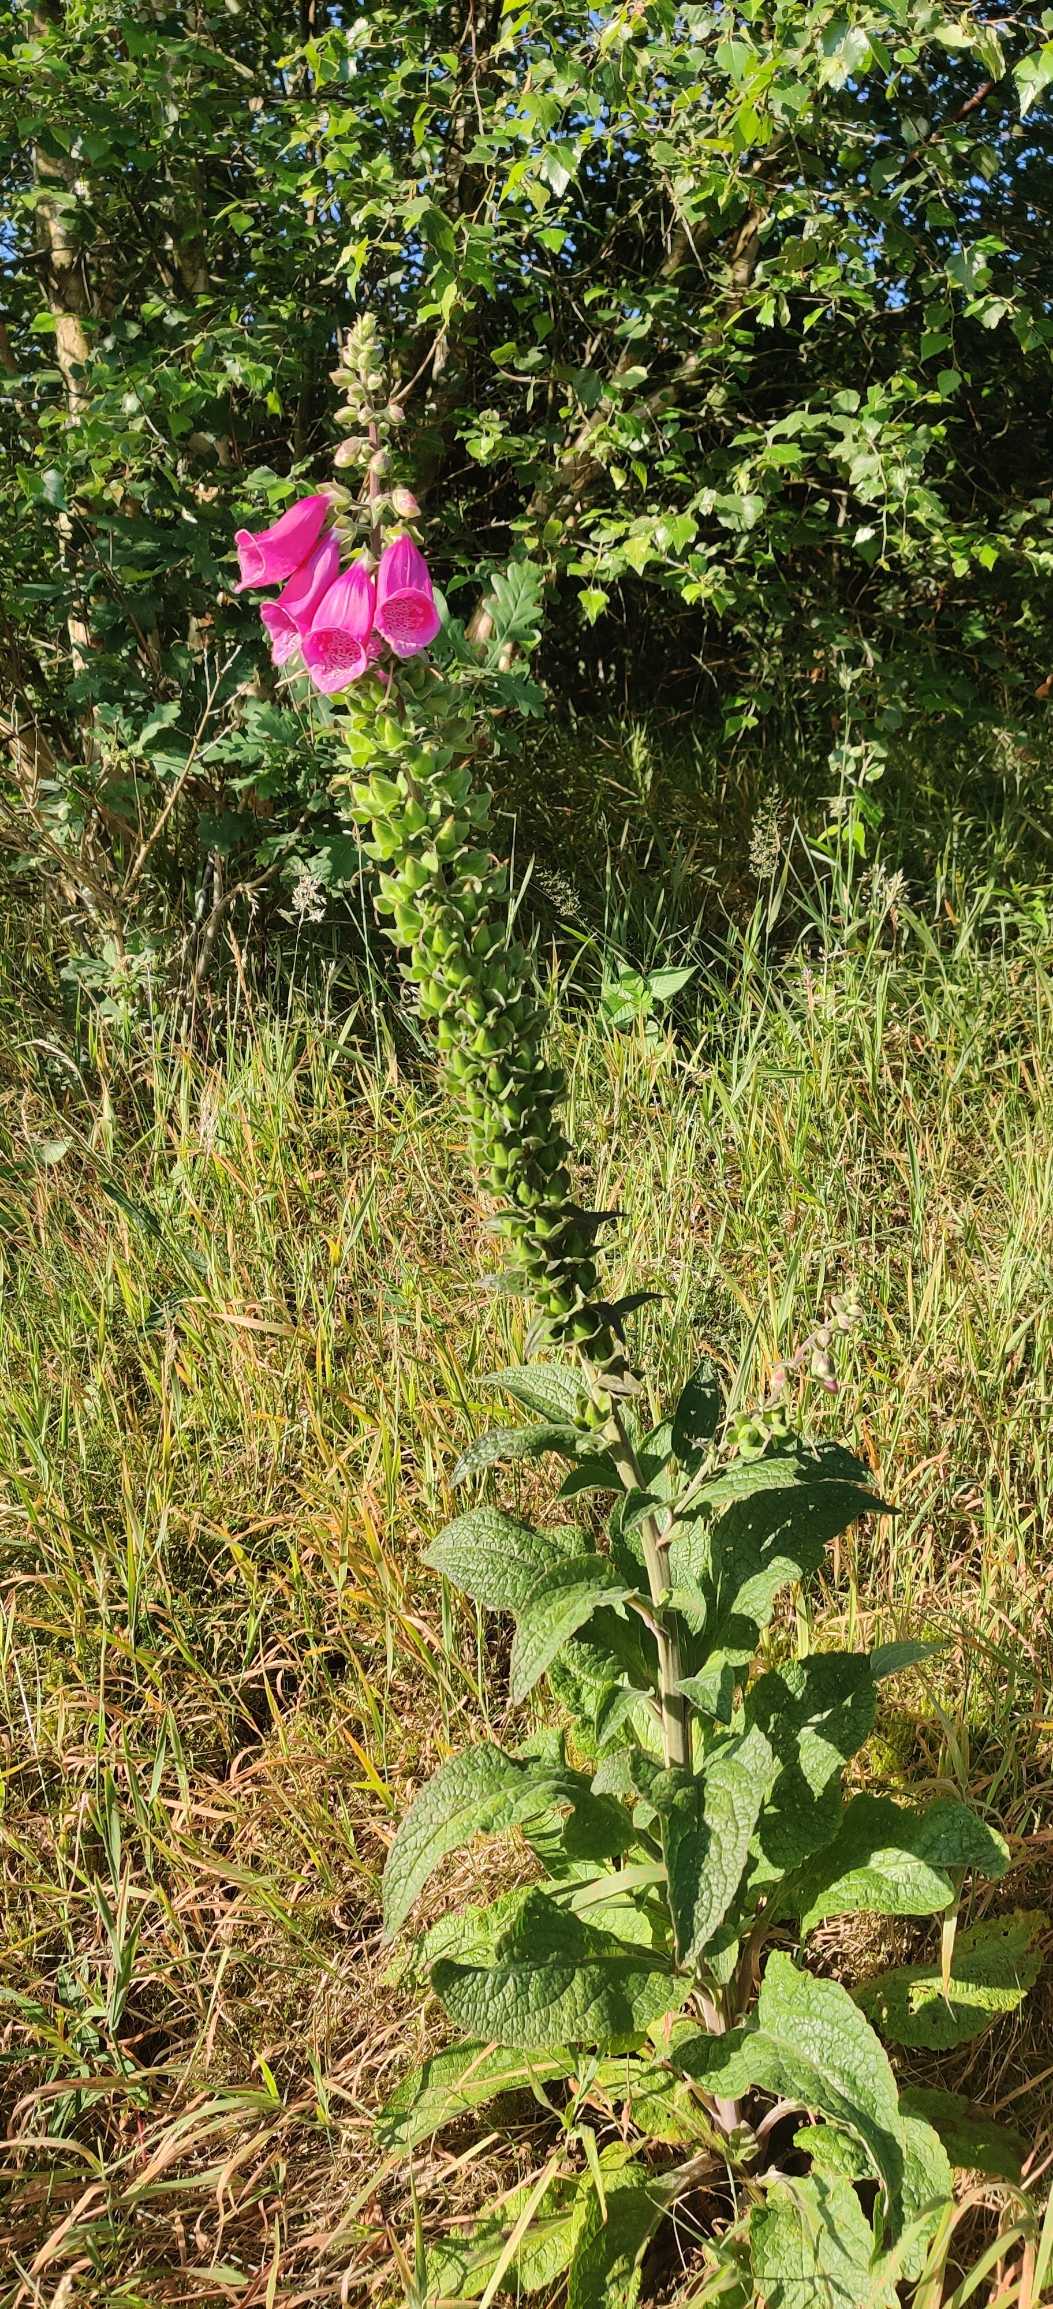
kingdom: Plantae
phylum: Tracheophyta
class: Magnoliopsida
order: Lamiales
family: Plantaginaceae
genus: Digitalis
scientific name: Digitalis purpurea
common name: Almindelig fingerbøl
